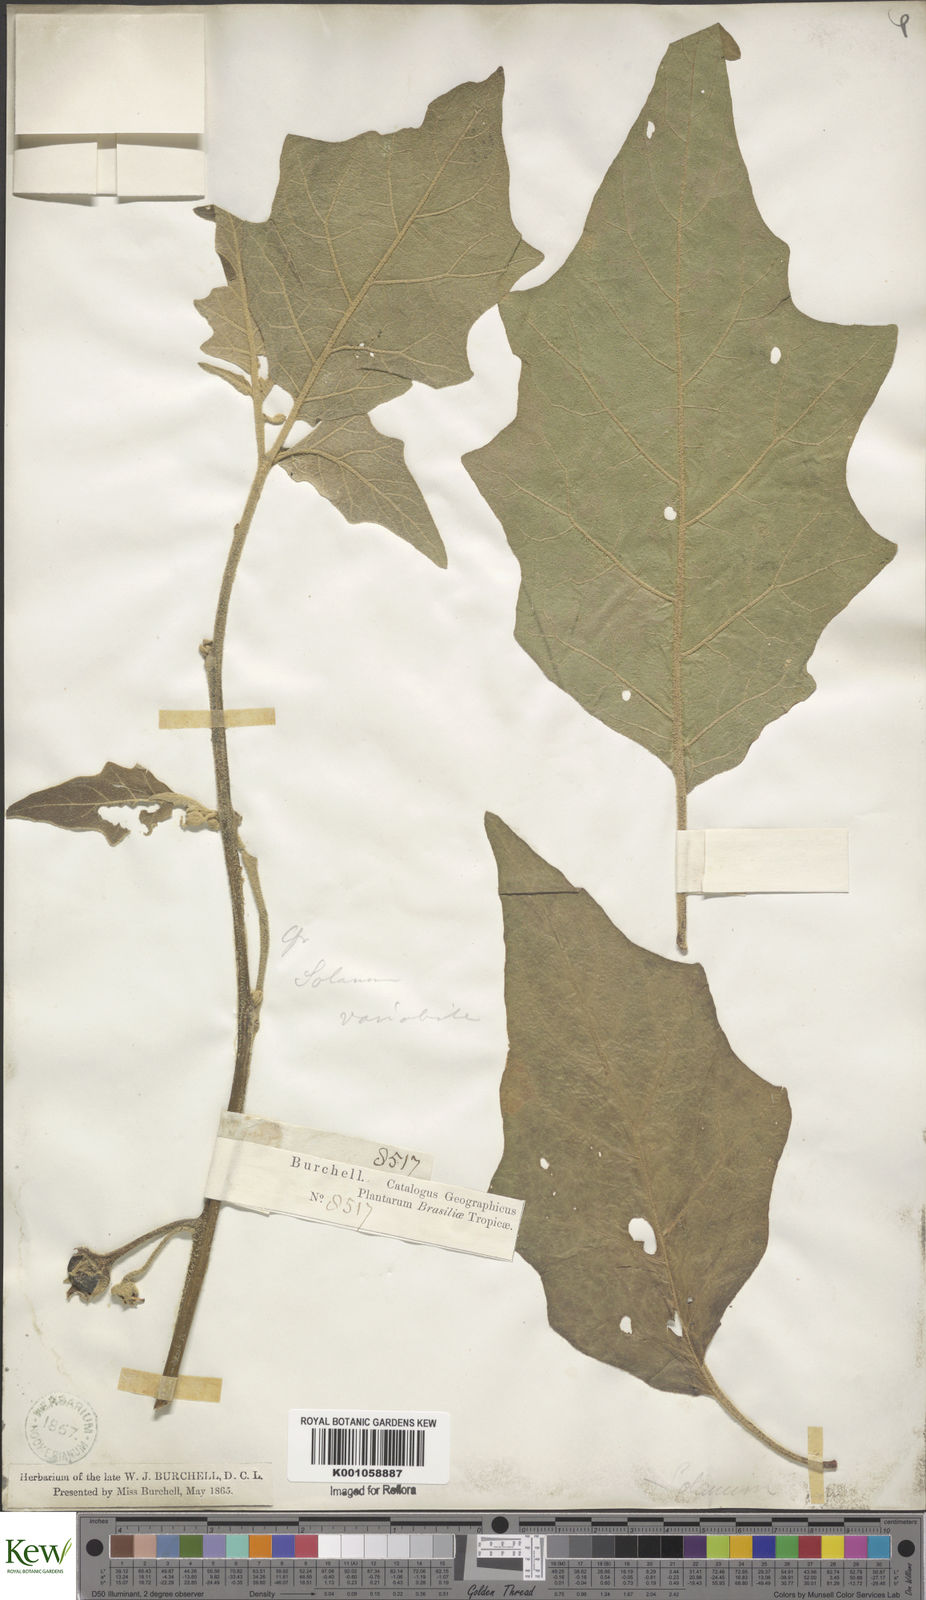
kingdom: Plantae
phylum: Tracheophyta
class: Magnoliopsida
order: Solanales
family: Solanaceae
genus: Solanum
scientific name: Solanum
